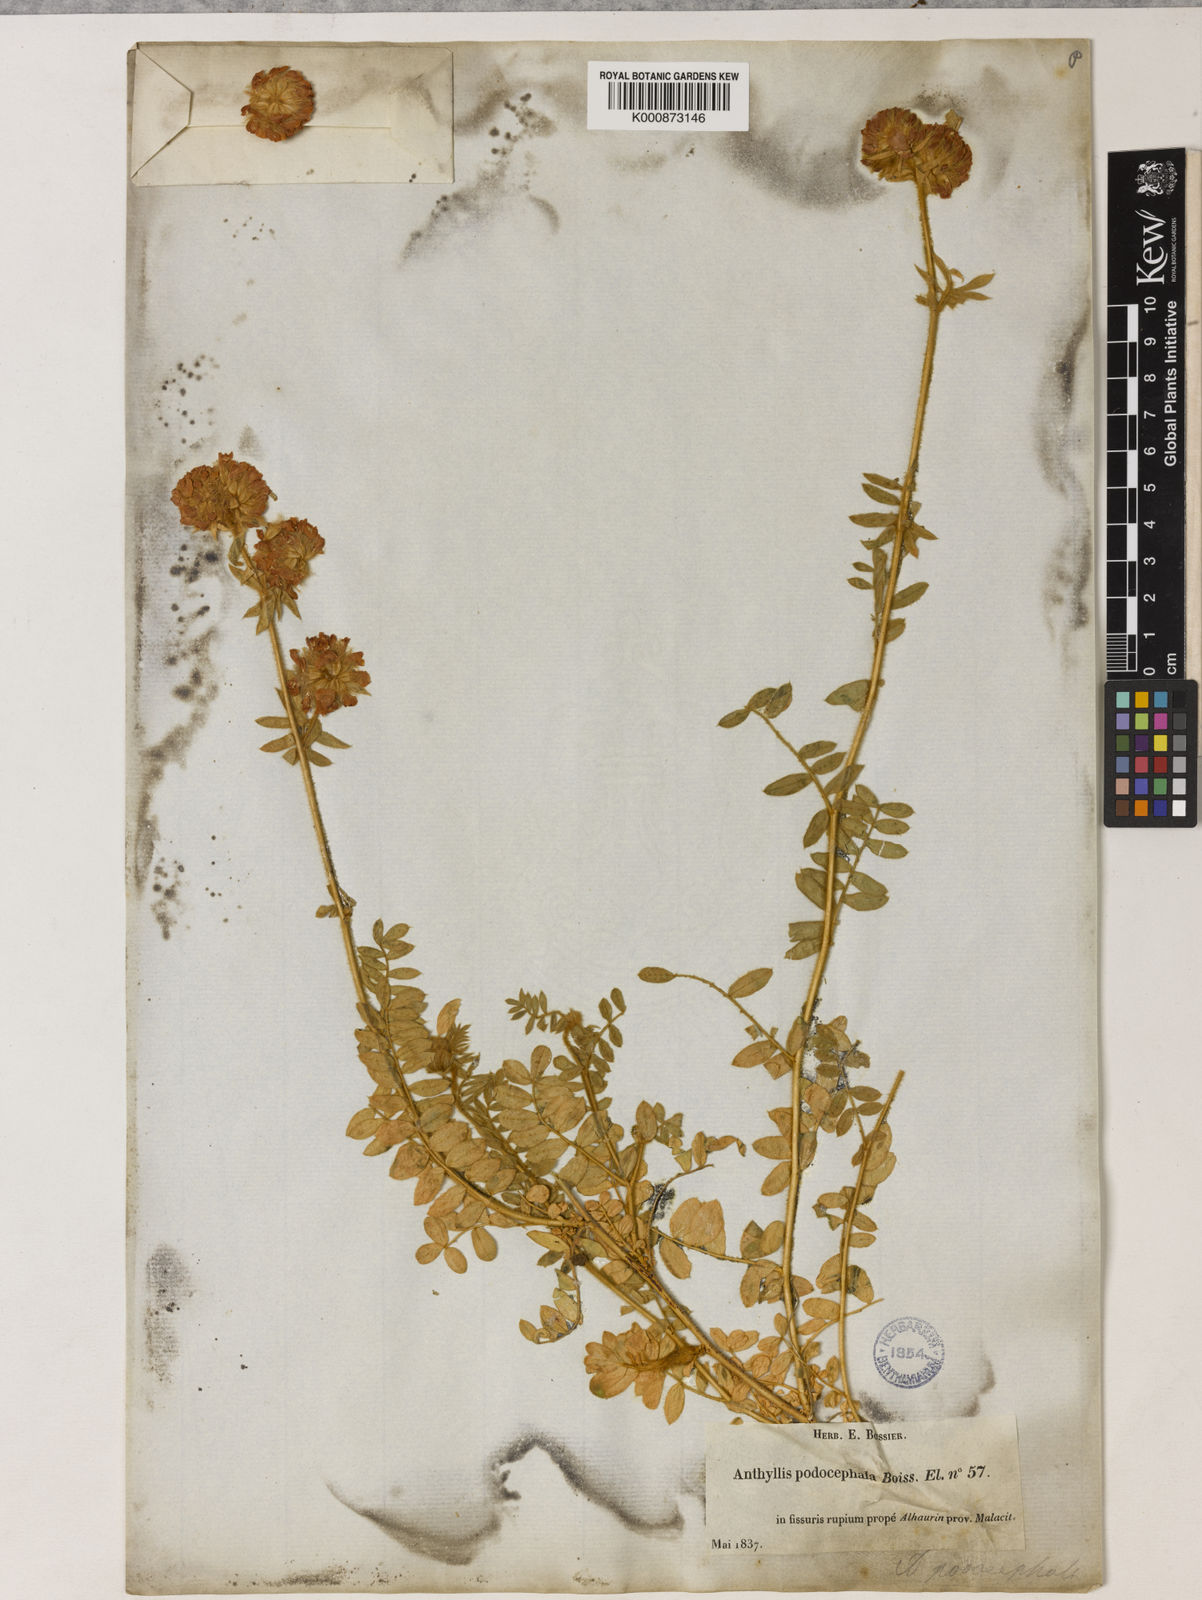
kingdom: Plantae
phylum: Tracheophyta
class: Magnoliopsida
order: Fabales
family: Fabaceae
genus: Anthyllis
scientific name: Anthyllis polycephala
